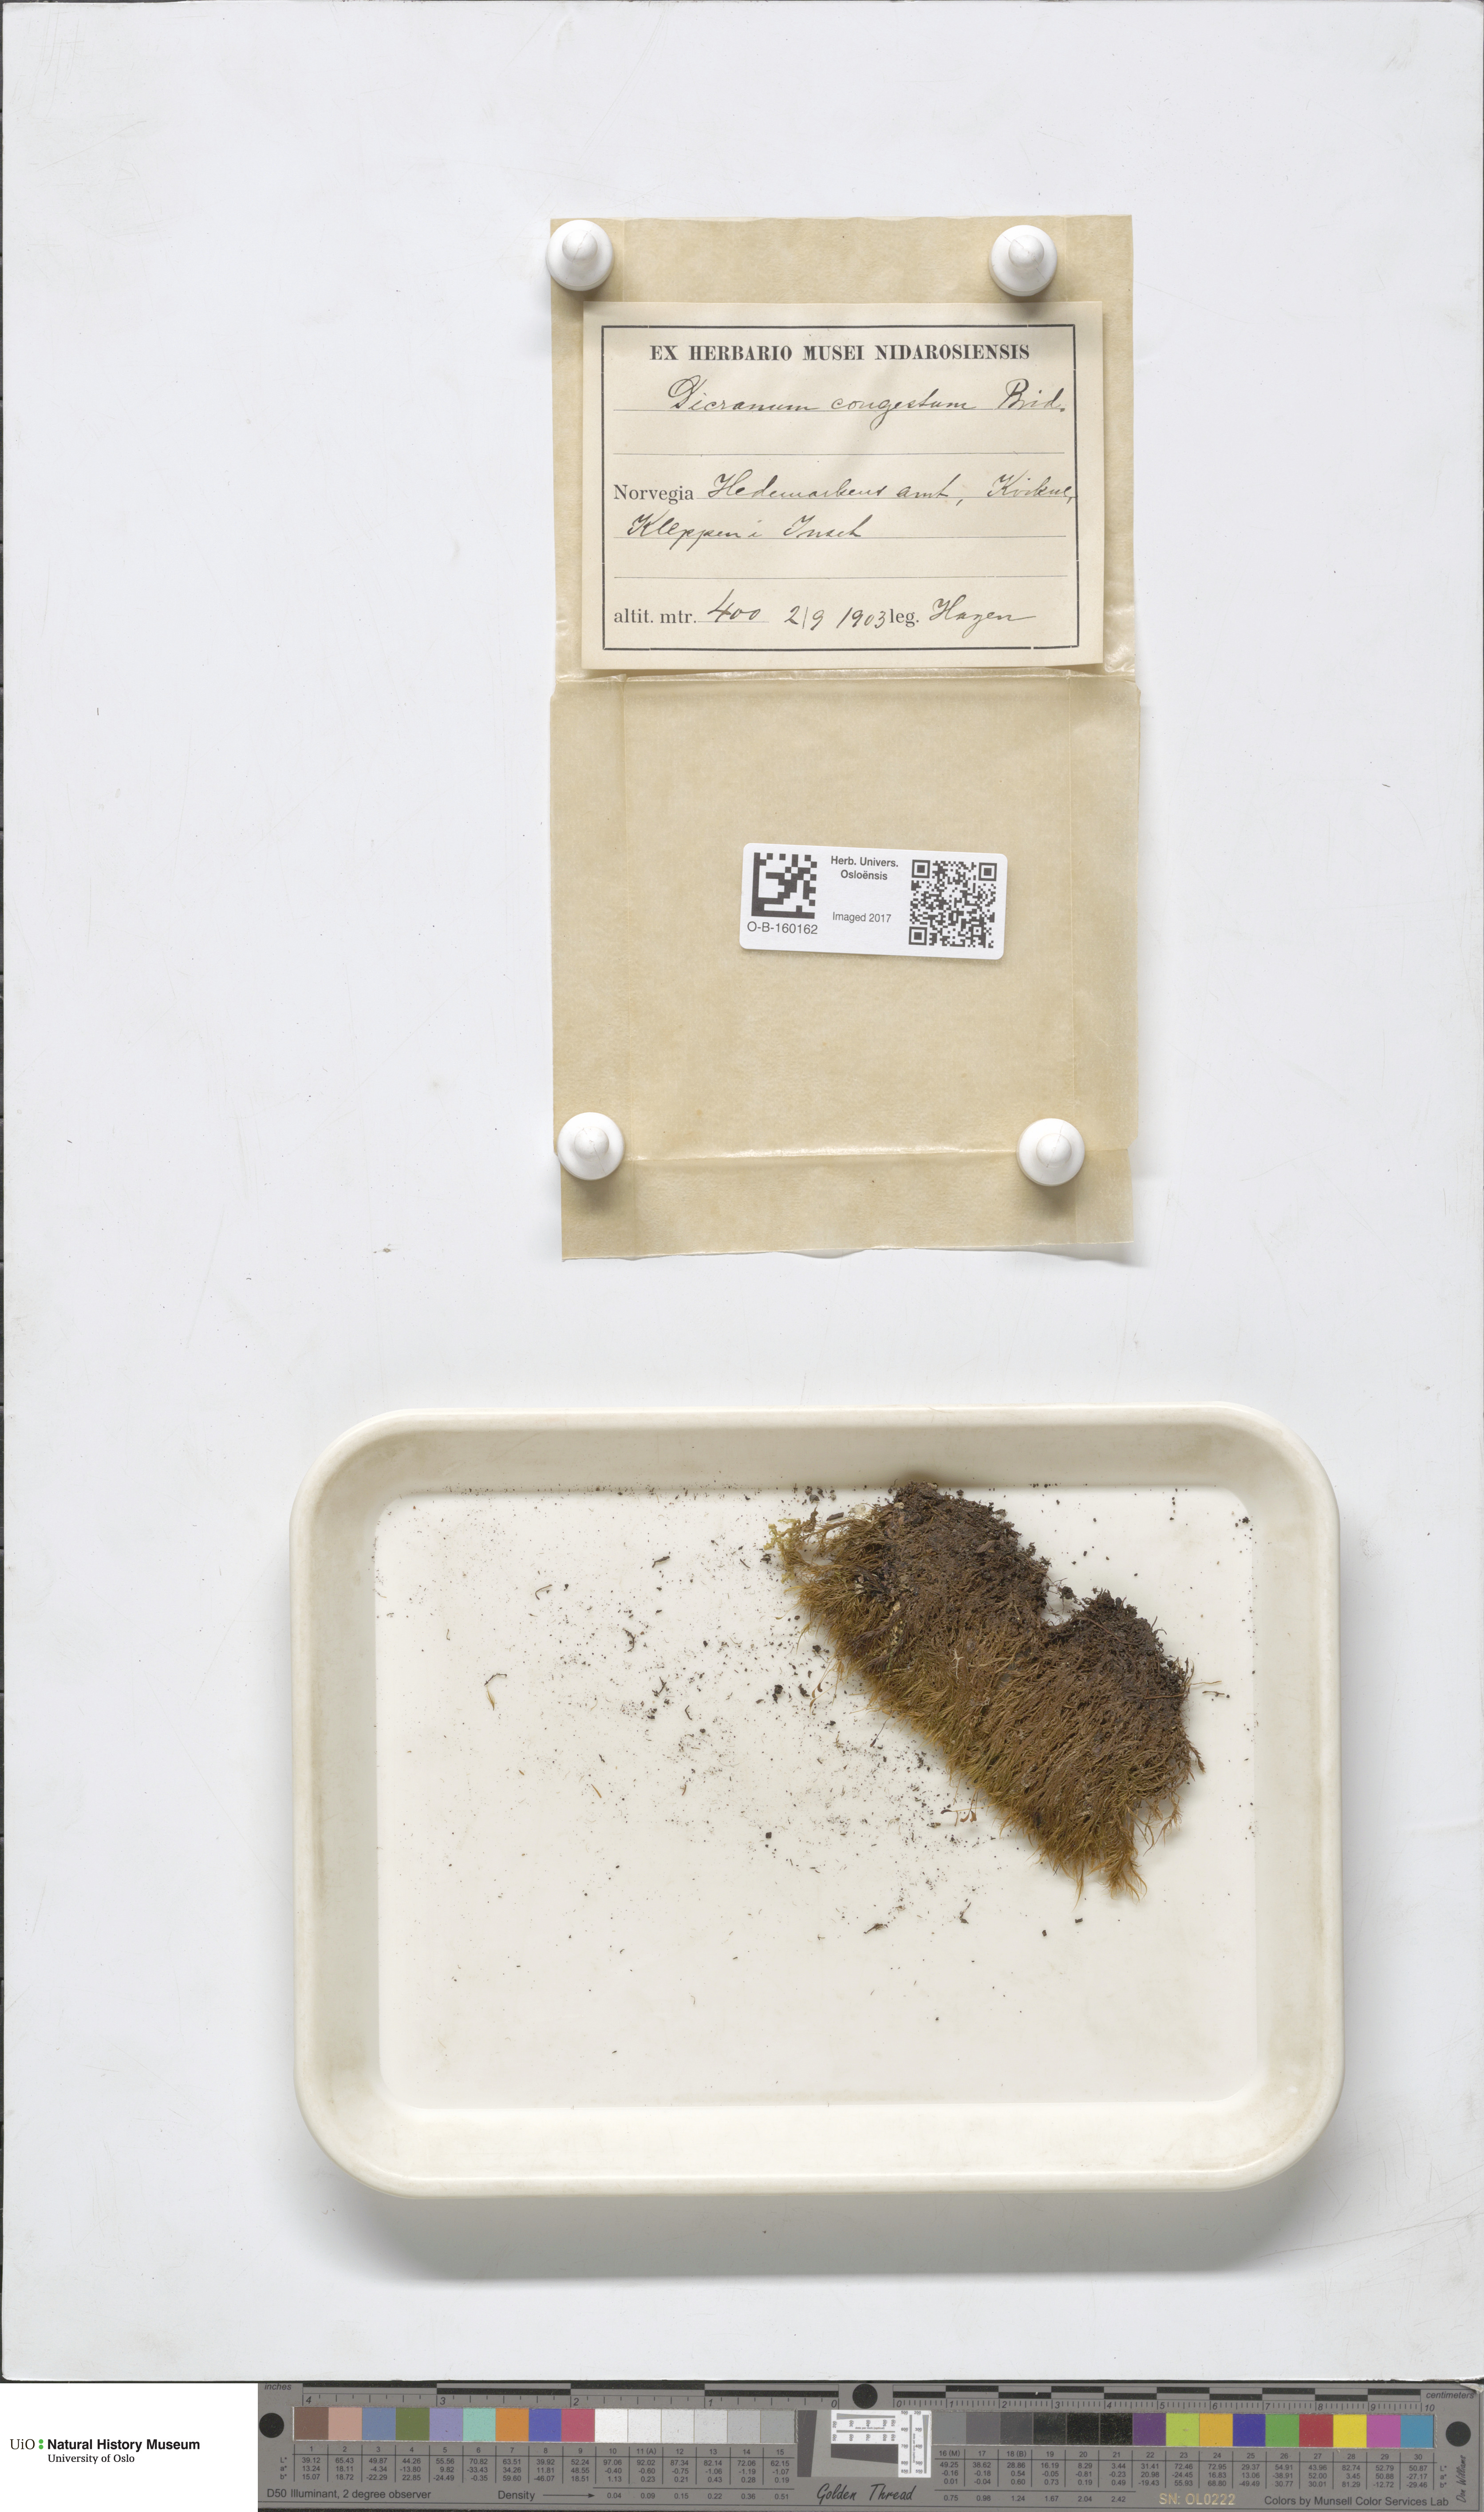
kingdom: Plantae
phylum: Bryophyta
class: Bryopsida
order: Dicranales
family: Dicranaceae
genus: Dicranum
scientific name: Dicranum flexicaule
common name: Bendy heron s-bill moss
